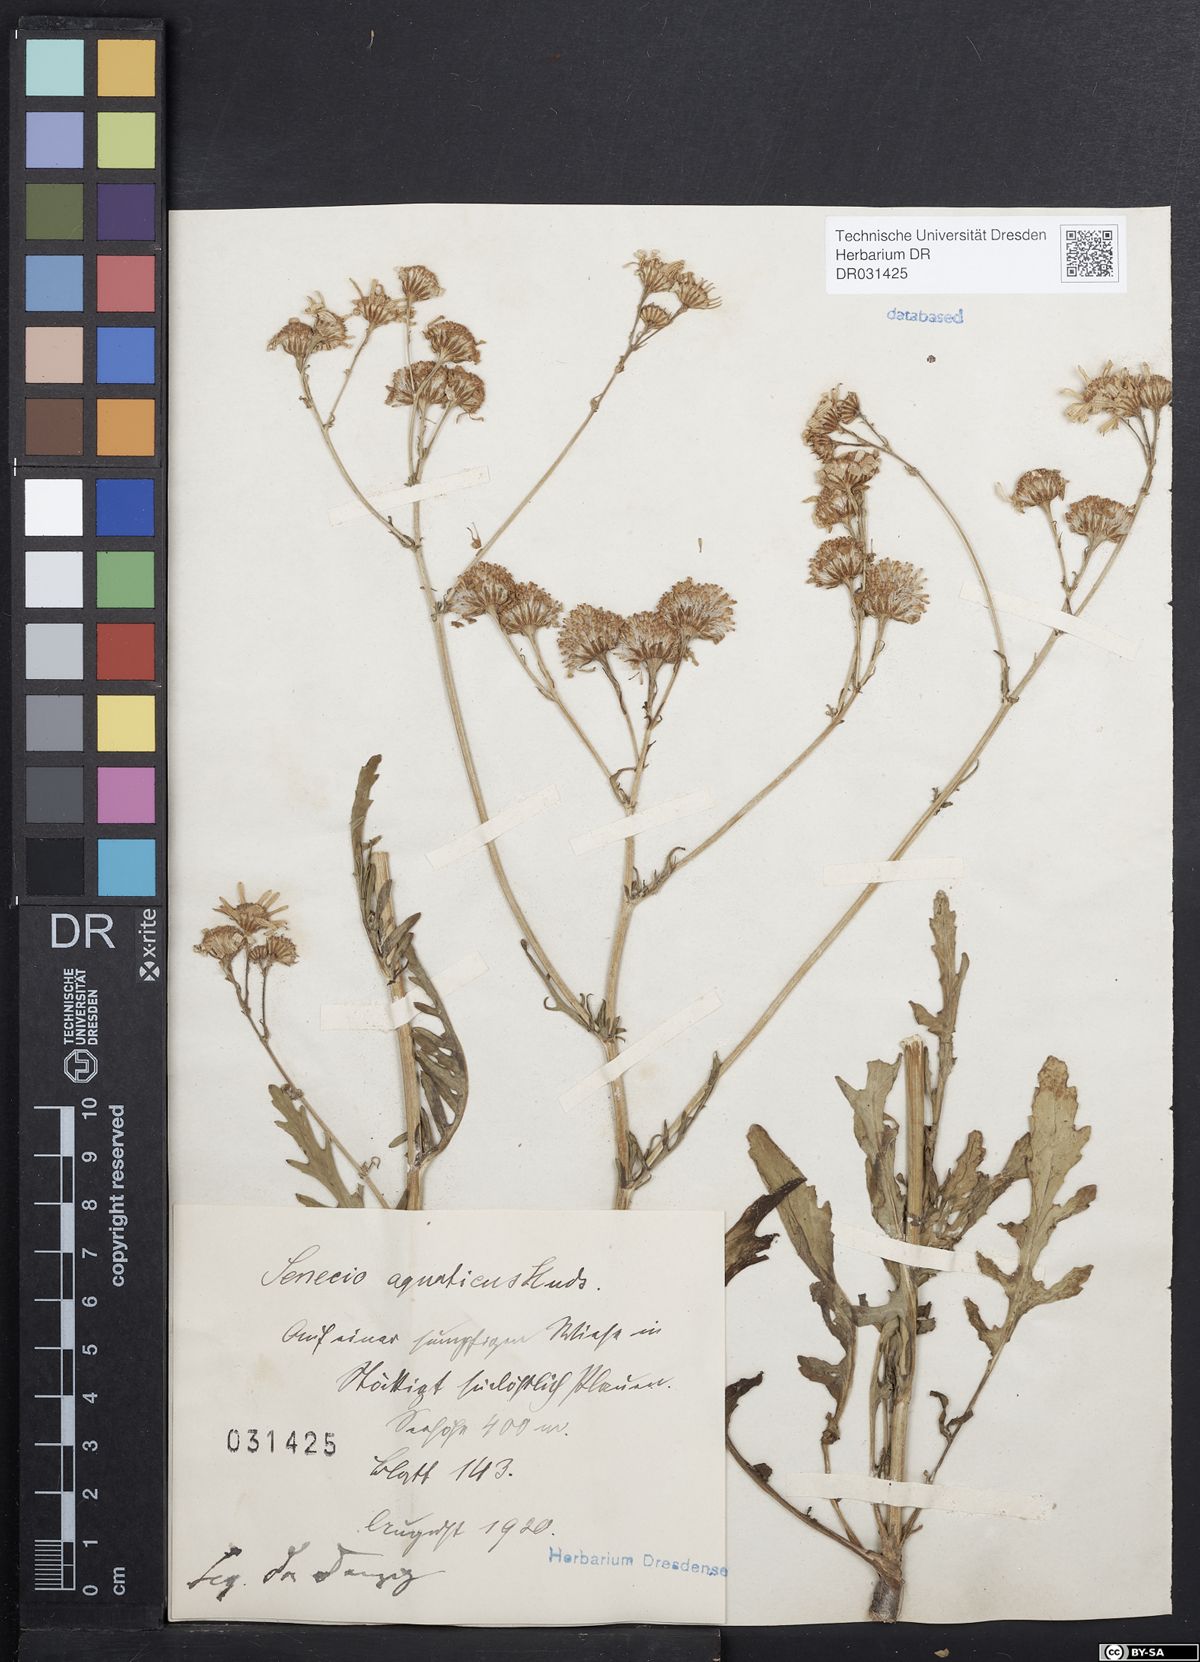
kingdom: Plantae
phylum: Tracheophyta
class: Magnoliopsida
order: Asterales
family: Asteraceae
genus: Jacobaea
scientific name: Jacobaea aquatica
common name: Water ragwort
